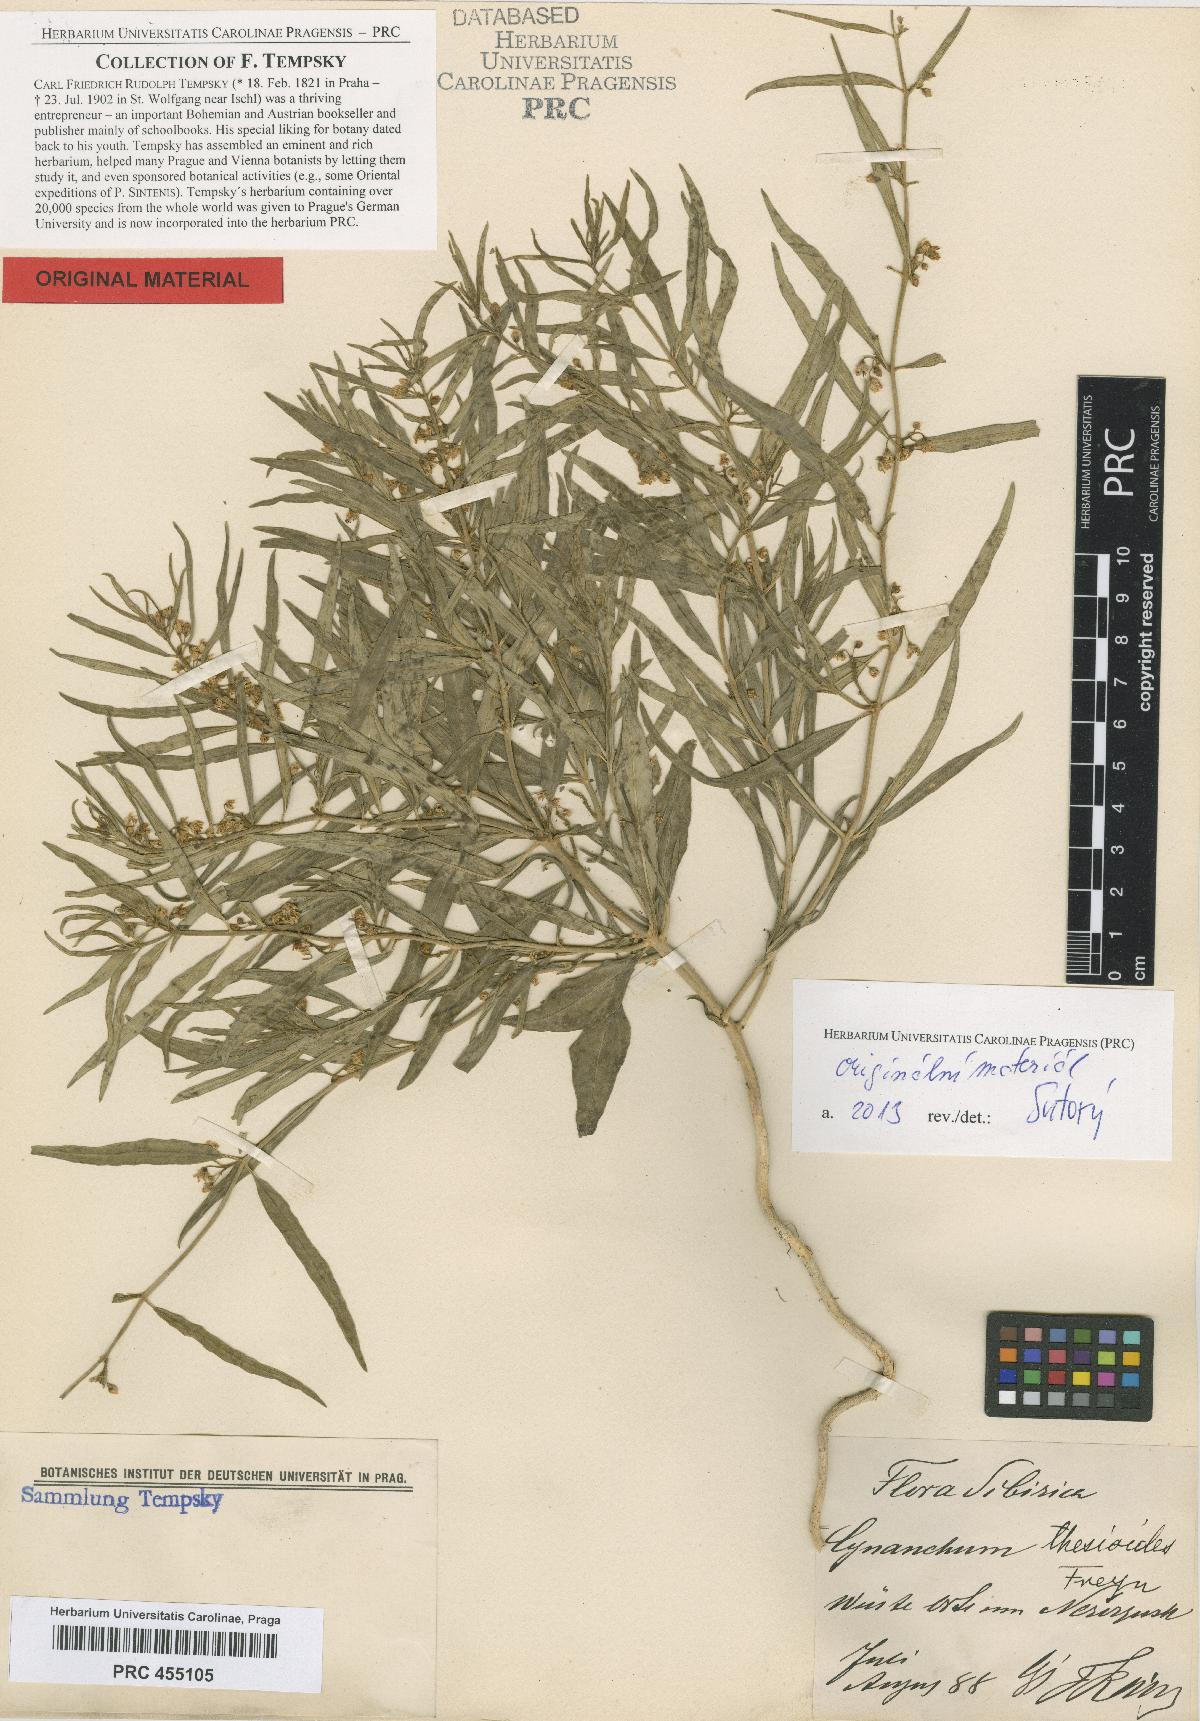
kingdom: Plantae
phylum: Tracheophyta
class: Magnoliopsida
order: Gentianales
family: Apocynaceae
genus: Cynanchum
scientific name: Cynanchum thesioides
